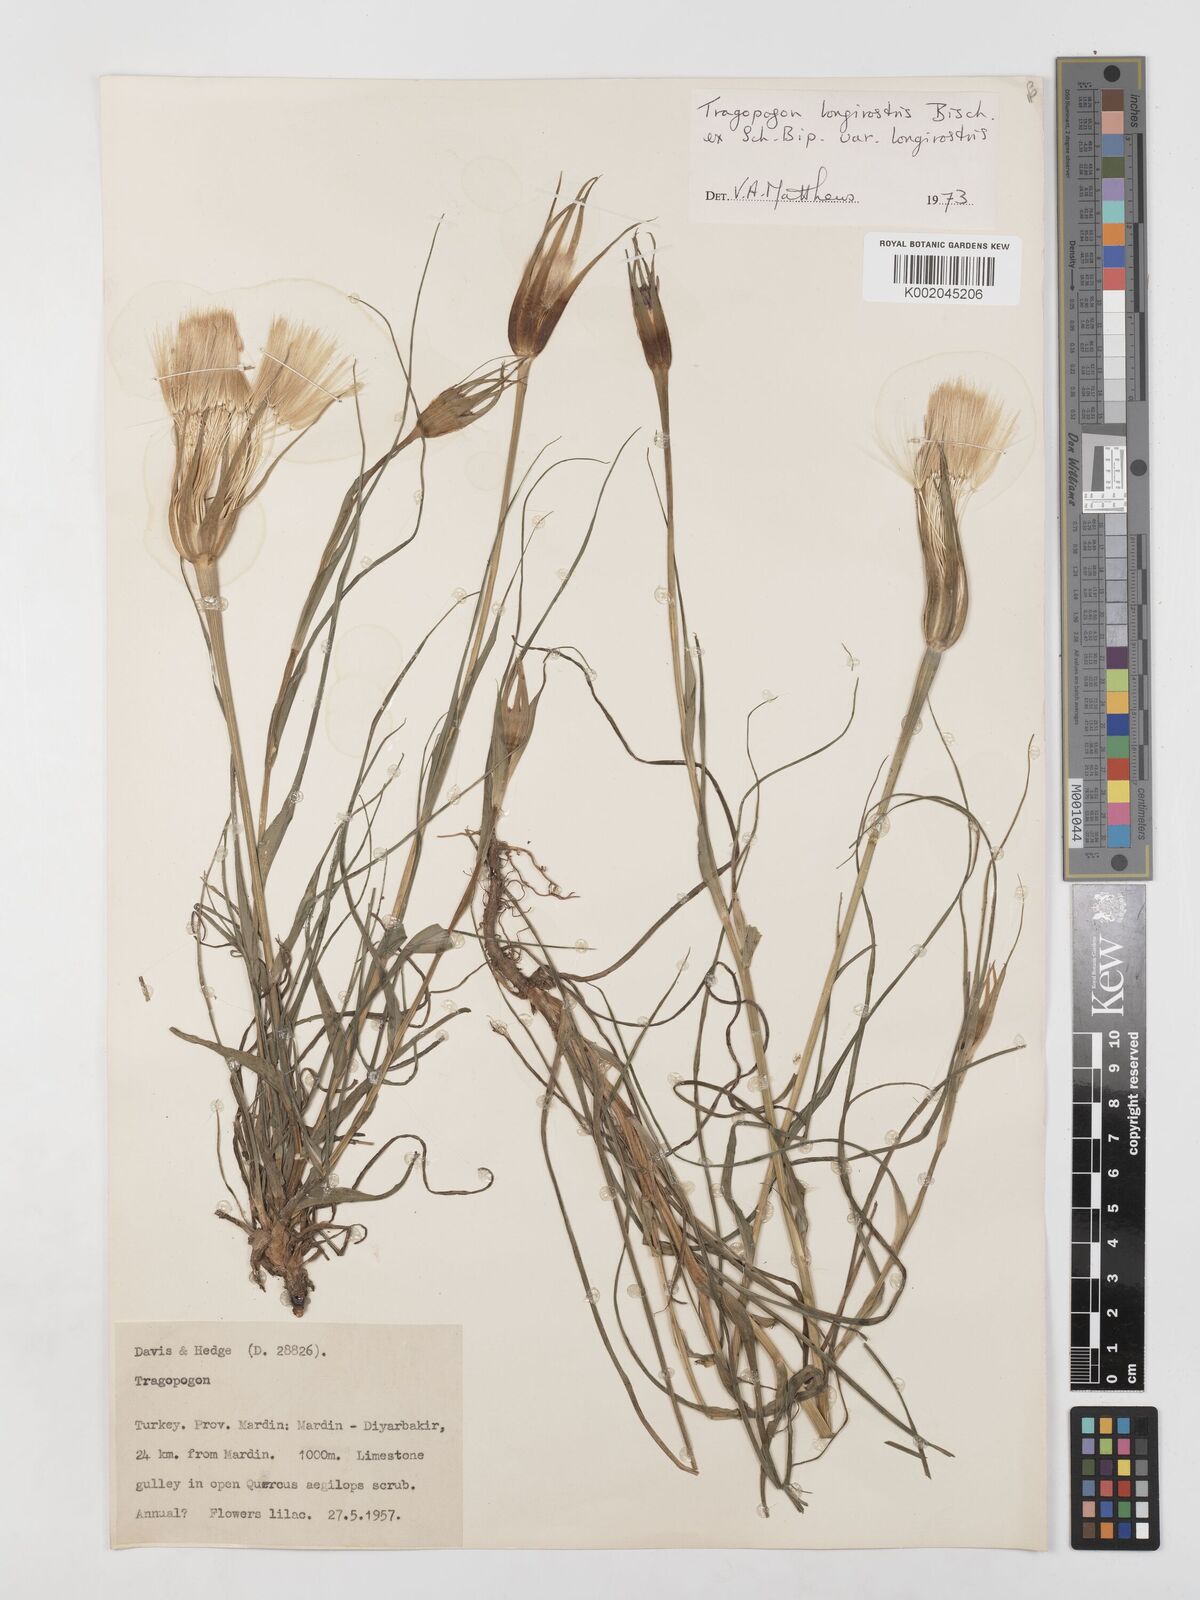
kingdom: Plantae
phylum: Tracheophyta
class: Magnoliopsida
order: Asterales
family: Asteraceae
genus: Tragopogon
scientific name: Tragopogon coelesyriacus
